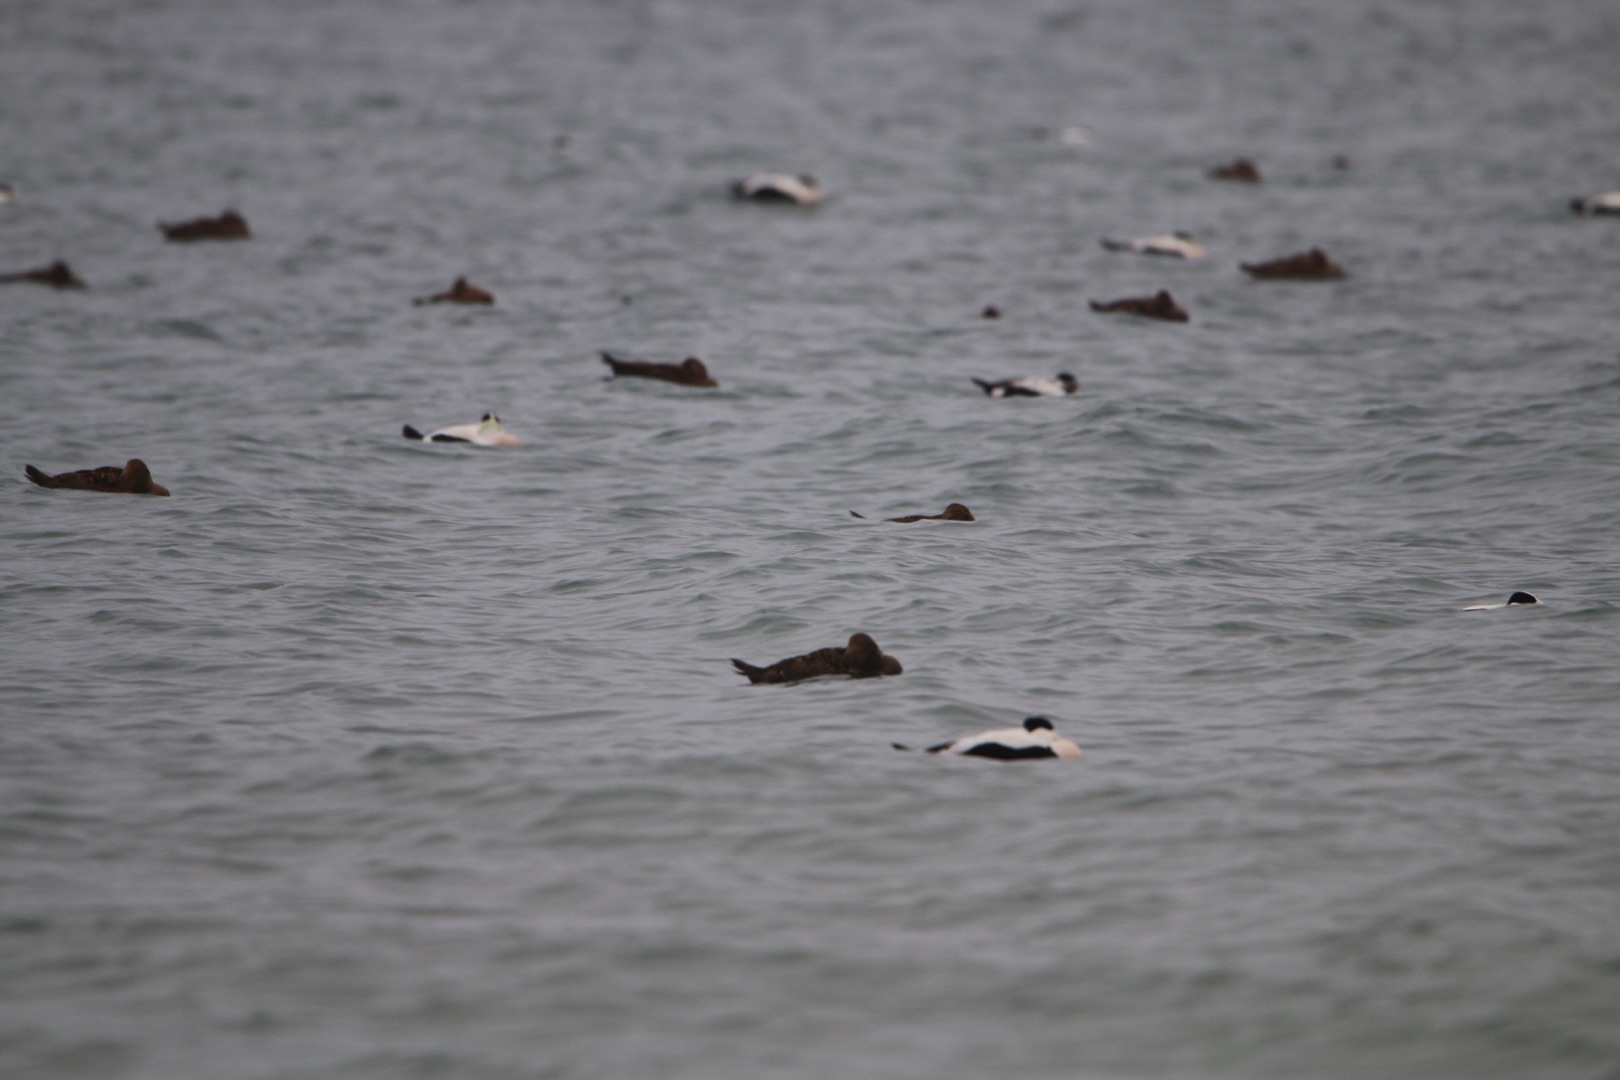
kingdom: Animalia
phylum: Chordata
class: Aves
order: Anseriformes
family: Anatidae
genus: Somateria
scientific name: Somateria mollissima
